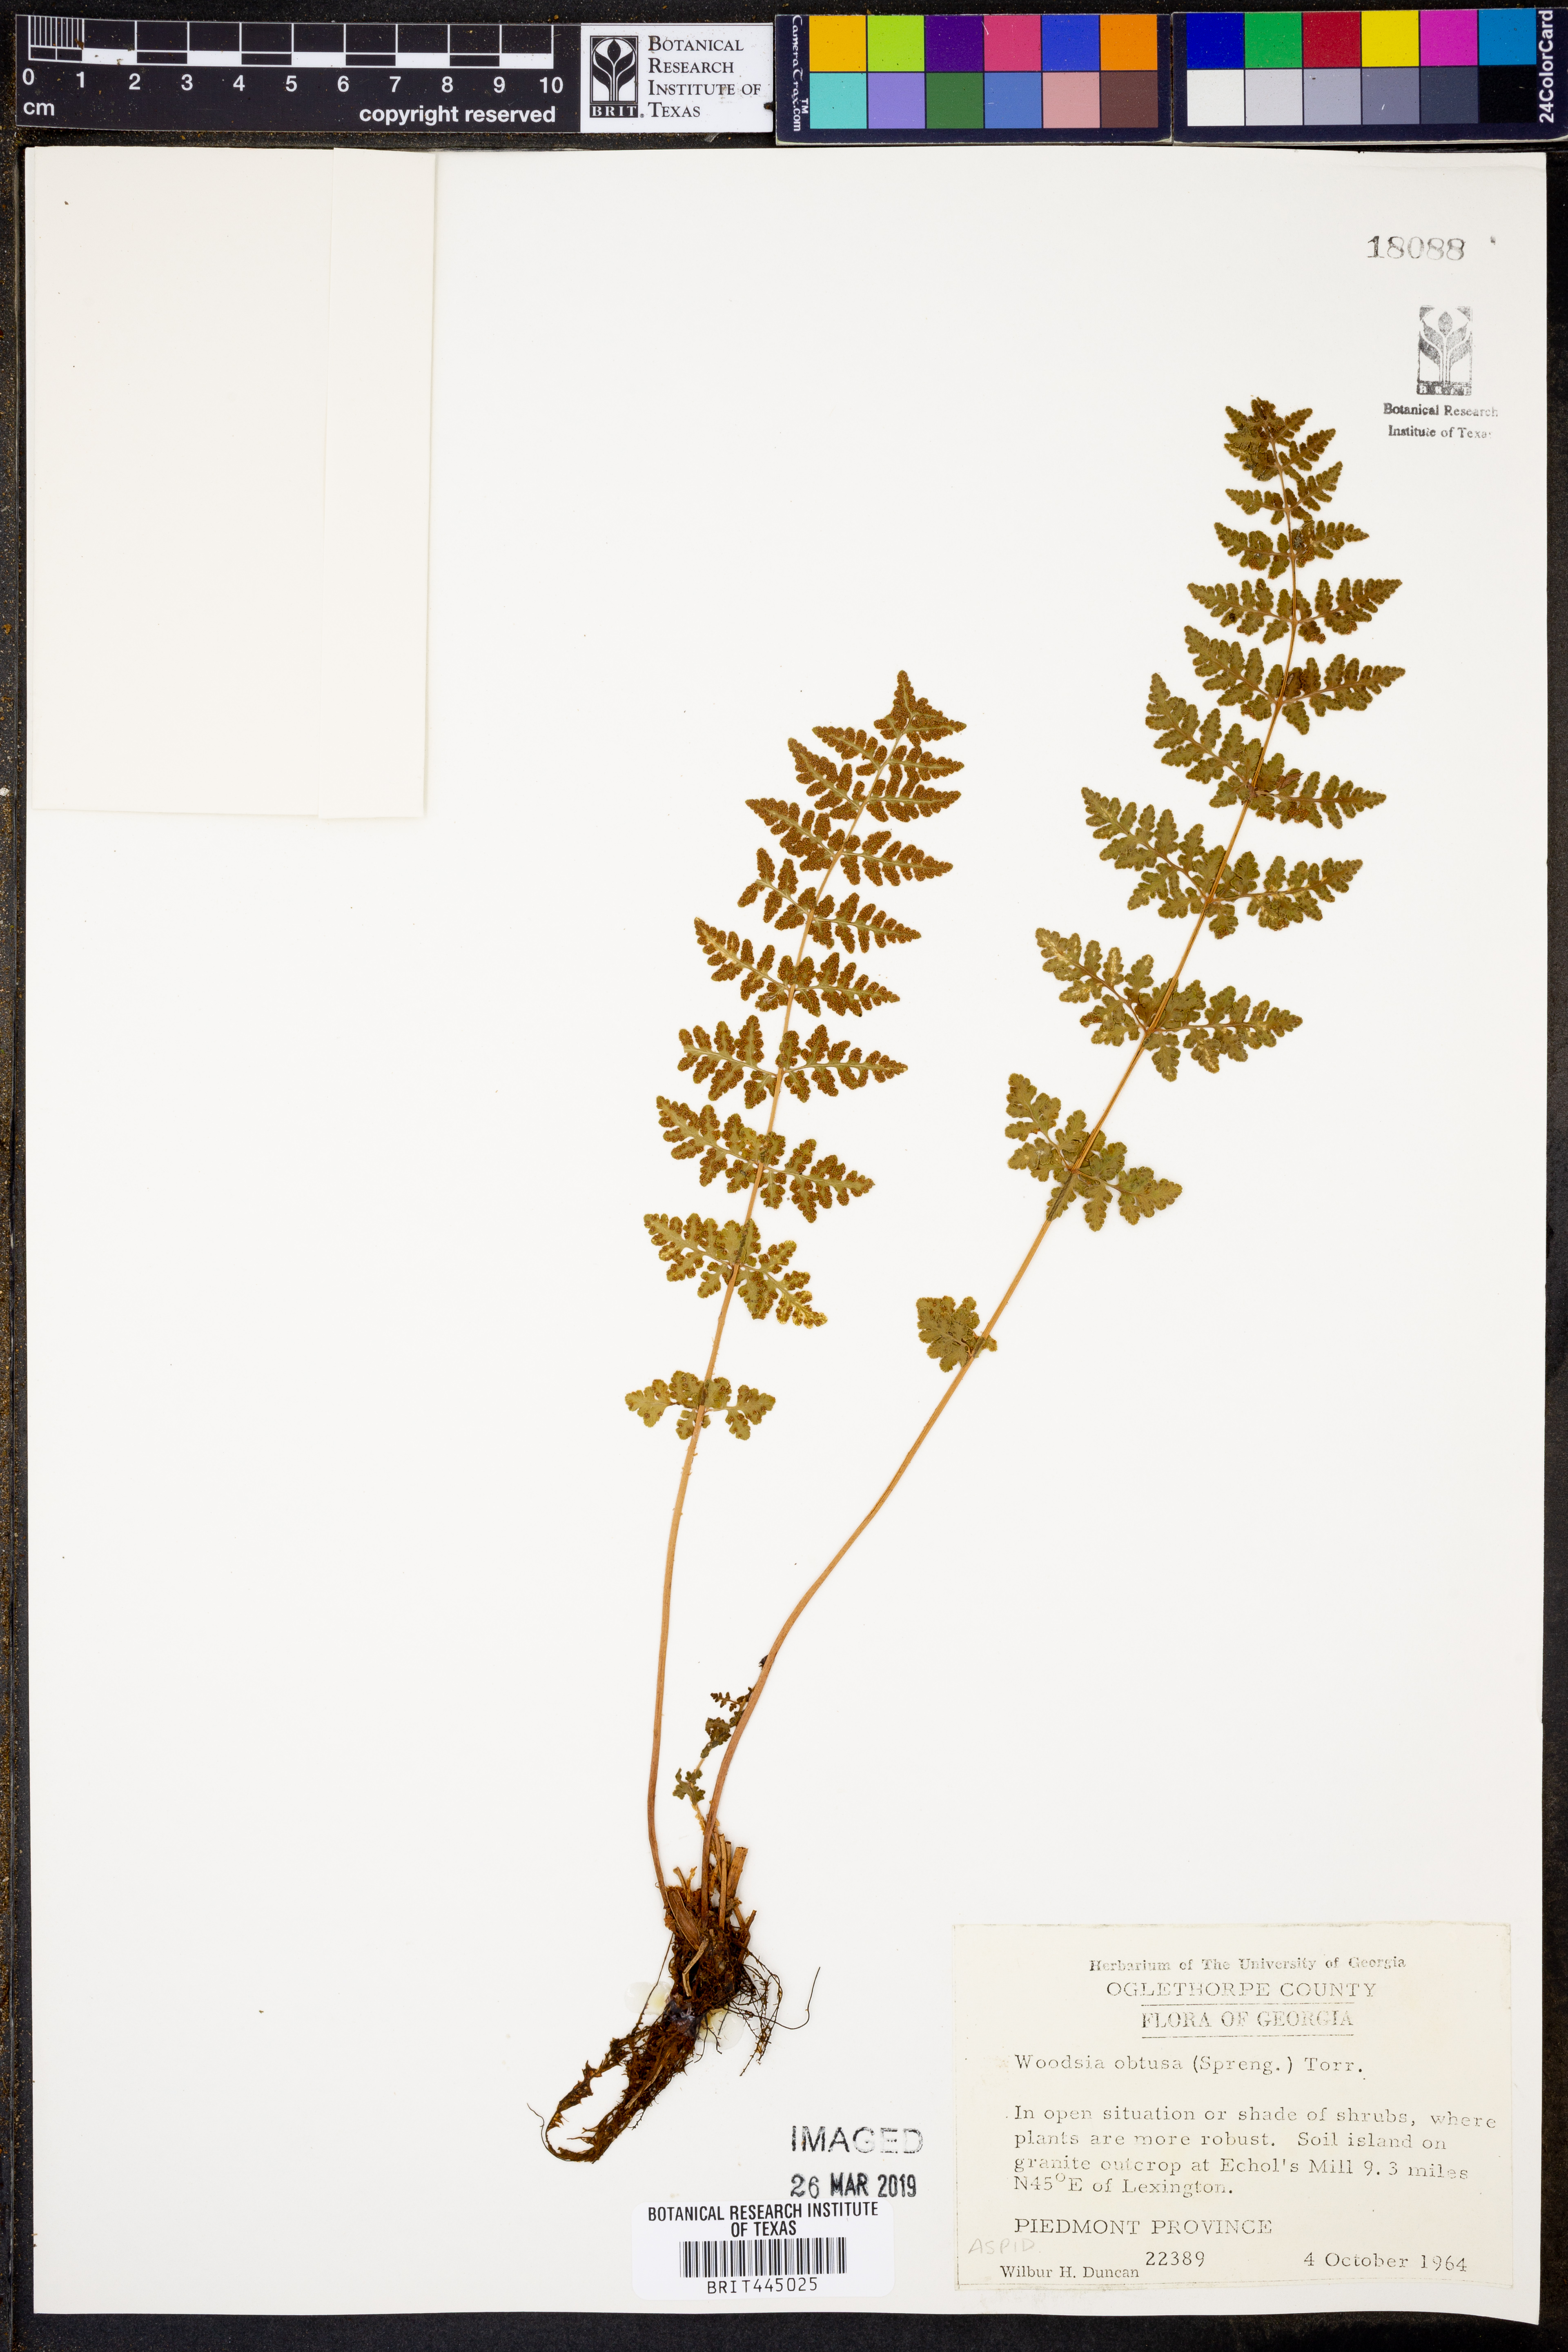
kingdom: Plantae
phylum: Tracheophyta
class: Polypodiopsida
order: Polypodiales
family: Woodsiaceae
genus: Physematium
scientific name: Physematium obtusum
